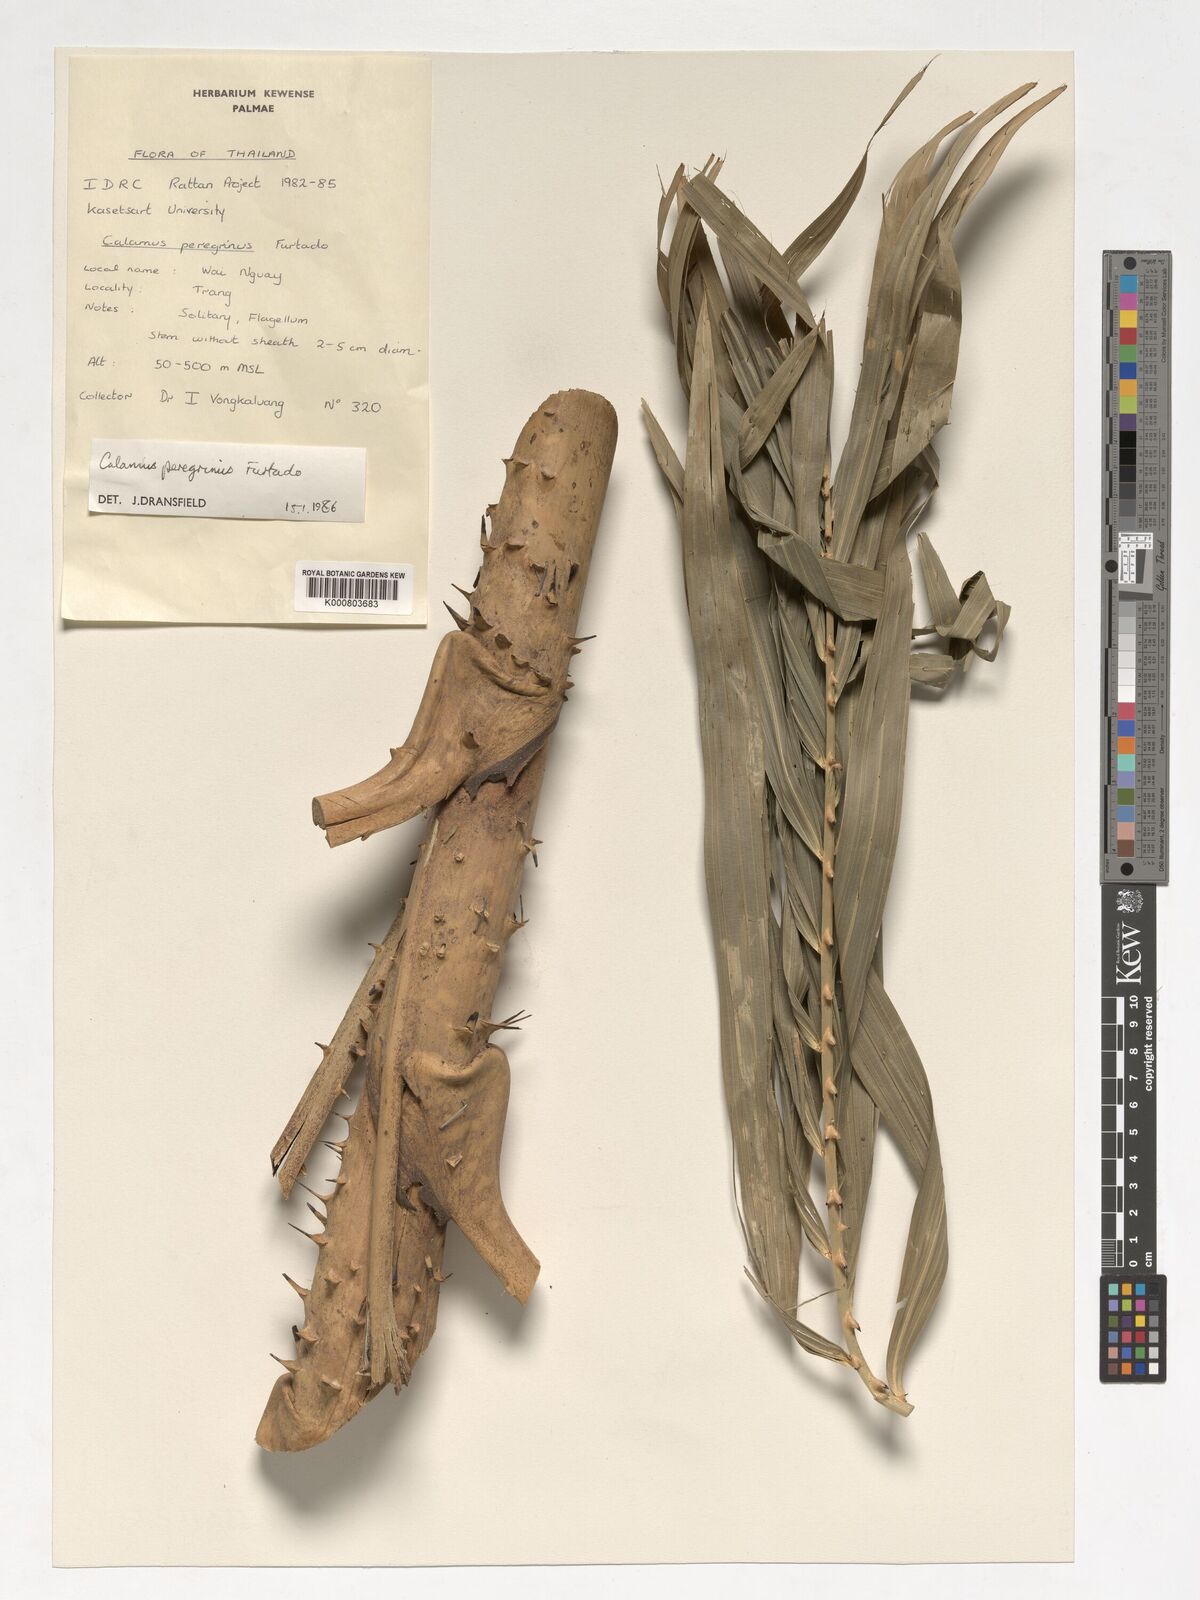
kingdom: Plantae
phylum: Tracheophyta
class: Liliopsida
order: Arecales
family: Arecaceae
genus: Calamus
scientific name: Calamus peregrinus
